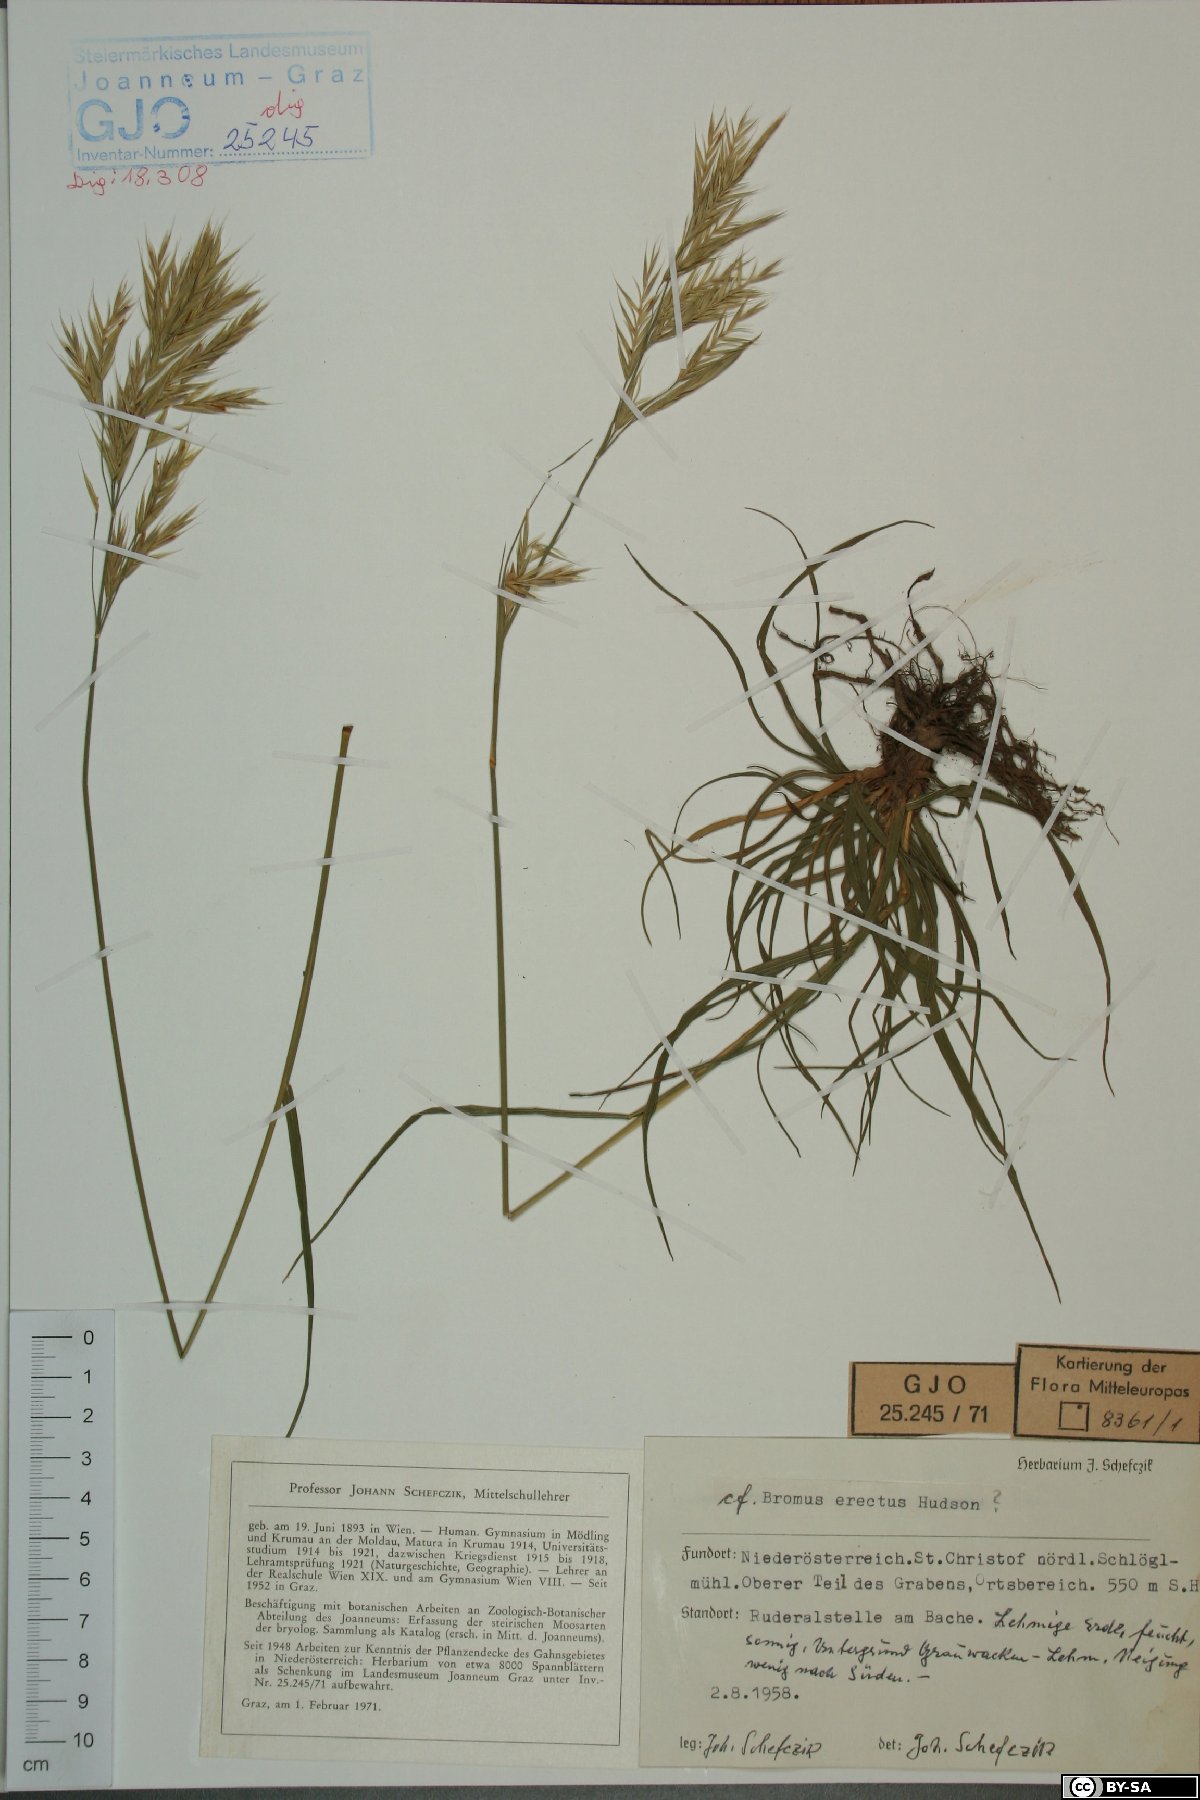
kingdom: Plantae
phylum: Tracheophyta
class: Liliopsida
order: Poales
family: Poaceae
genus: Bromus
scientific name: Bromus erectus
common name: Erect brome
